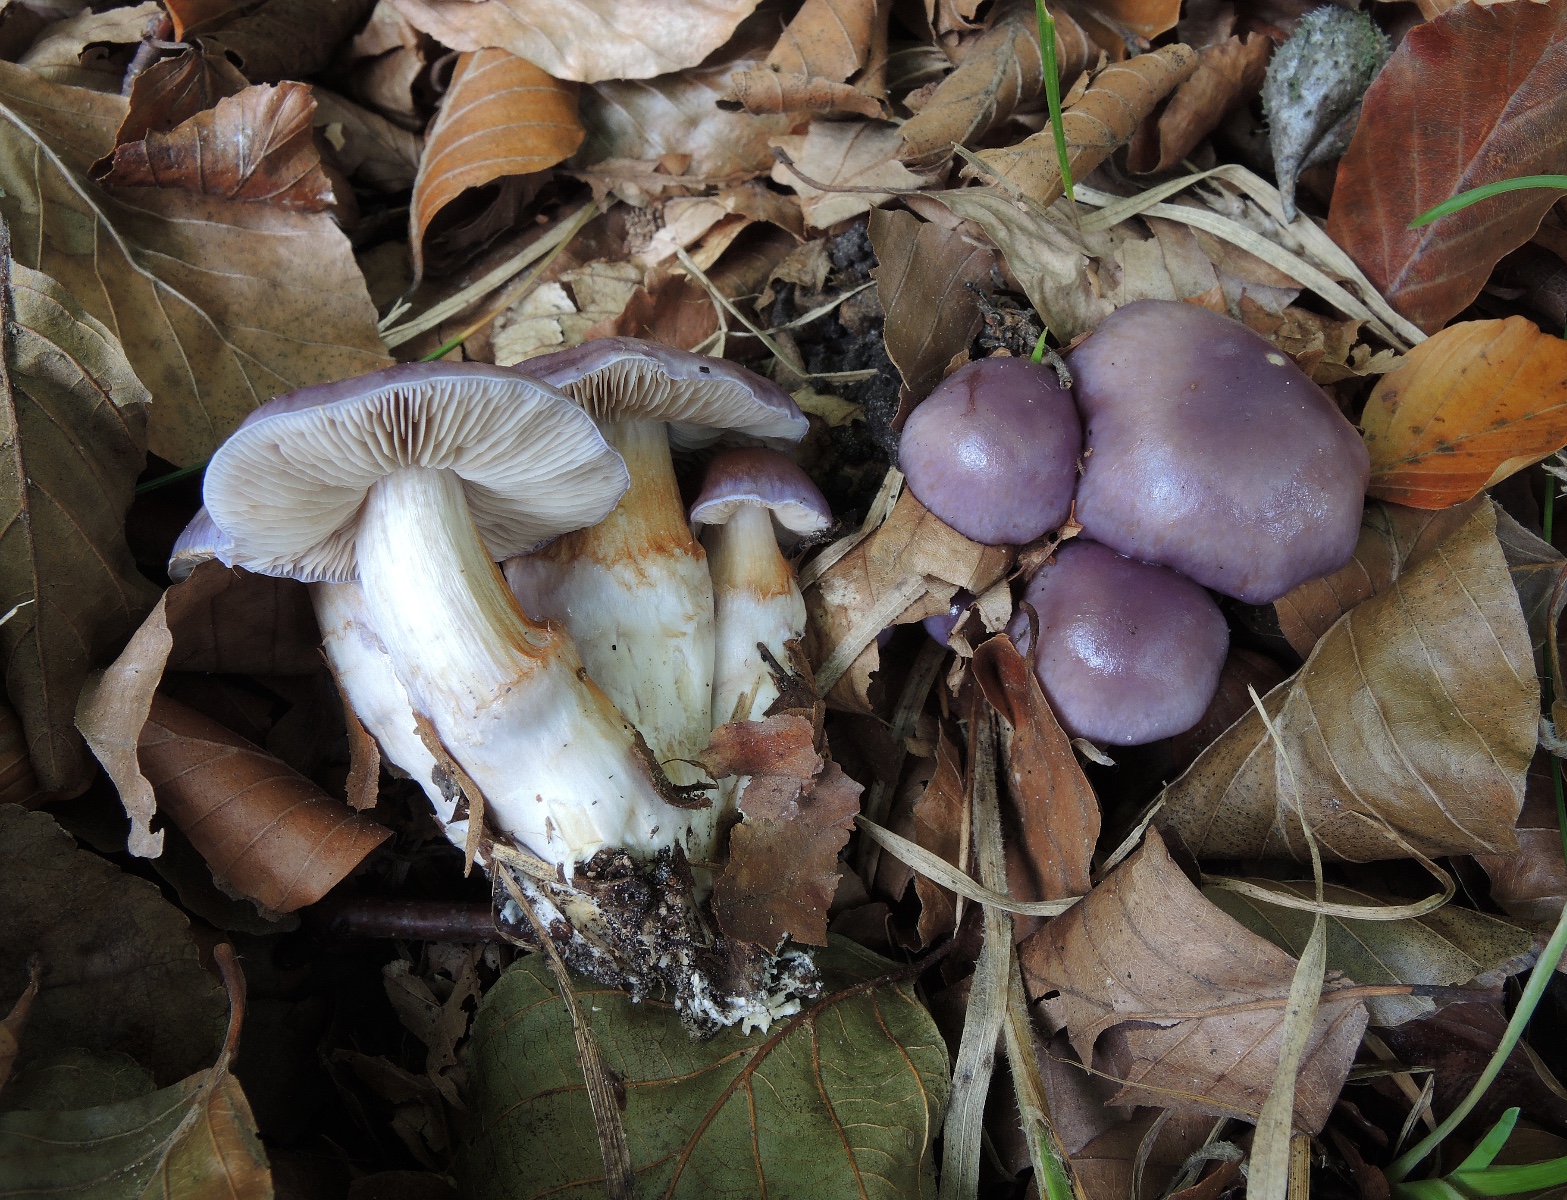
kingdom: Fungi
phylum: Basidiomycota
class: Agaricomycetes
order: Agaricales
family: Cortinariaceae
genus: Thaxterogaster
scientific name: Thaxterogaster croceocoeruleus
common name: blågullig slørhat
